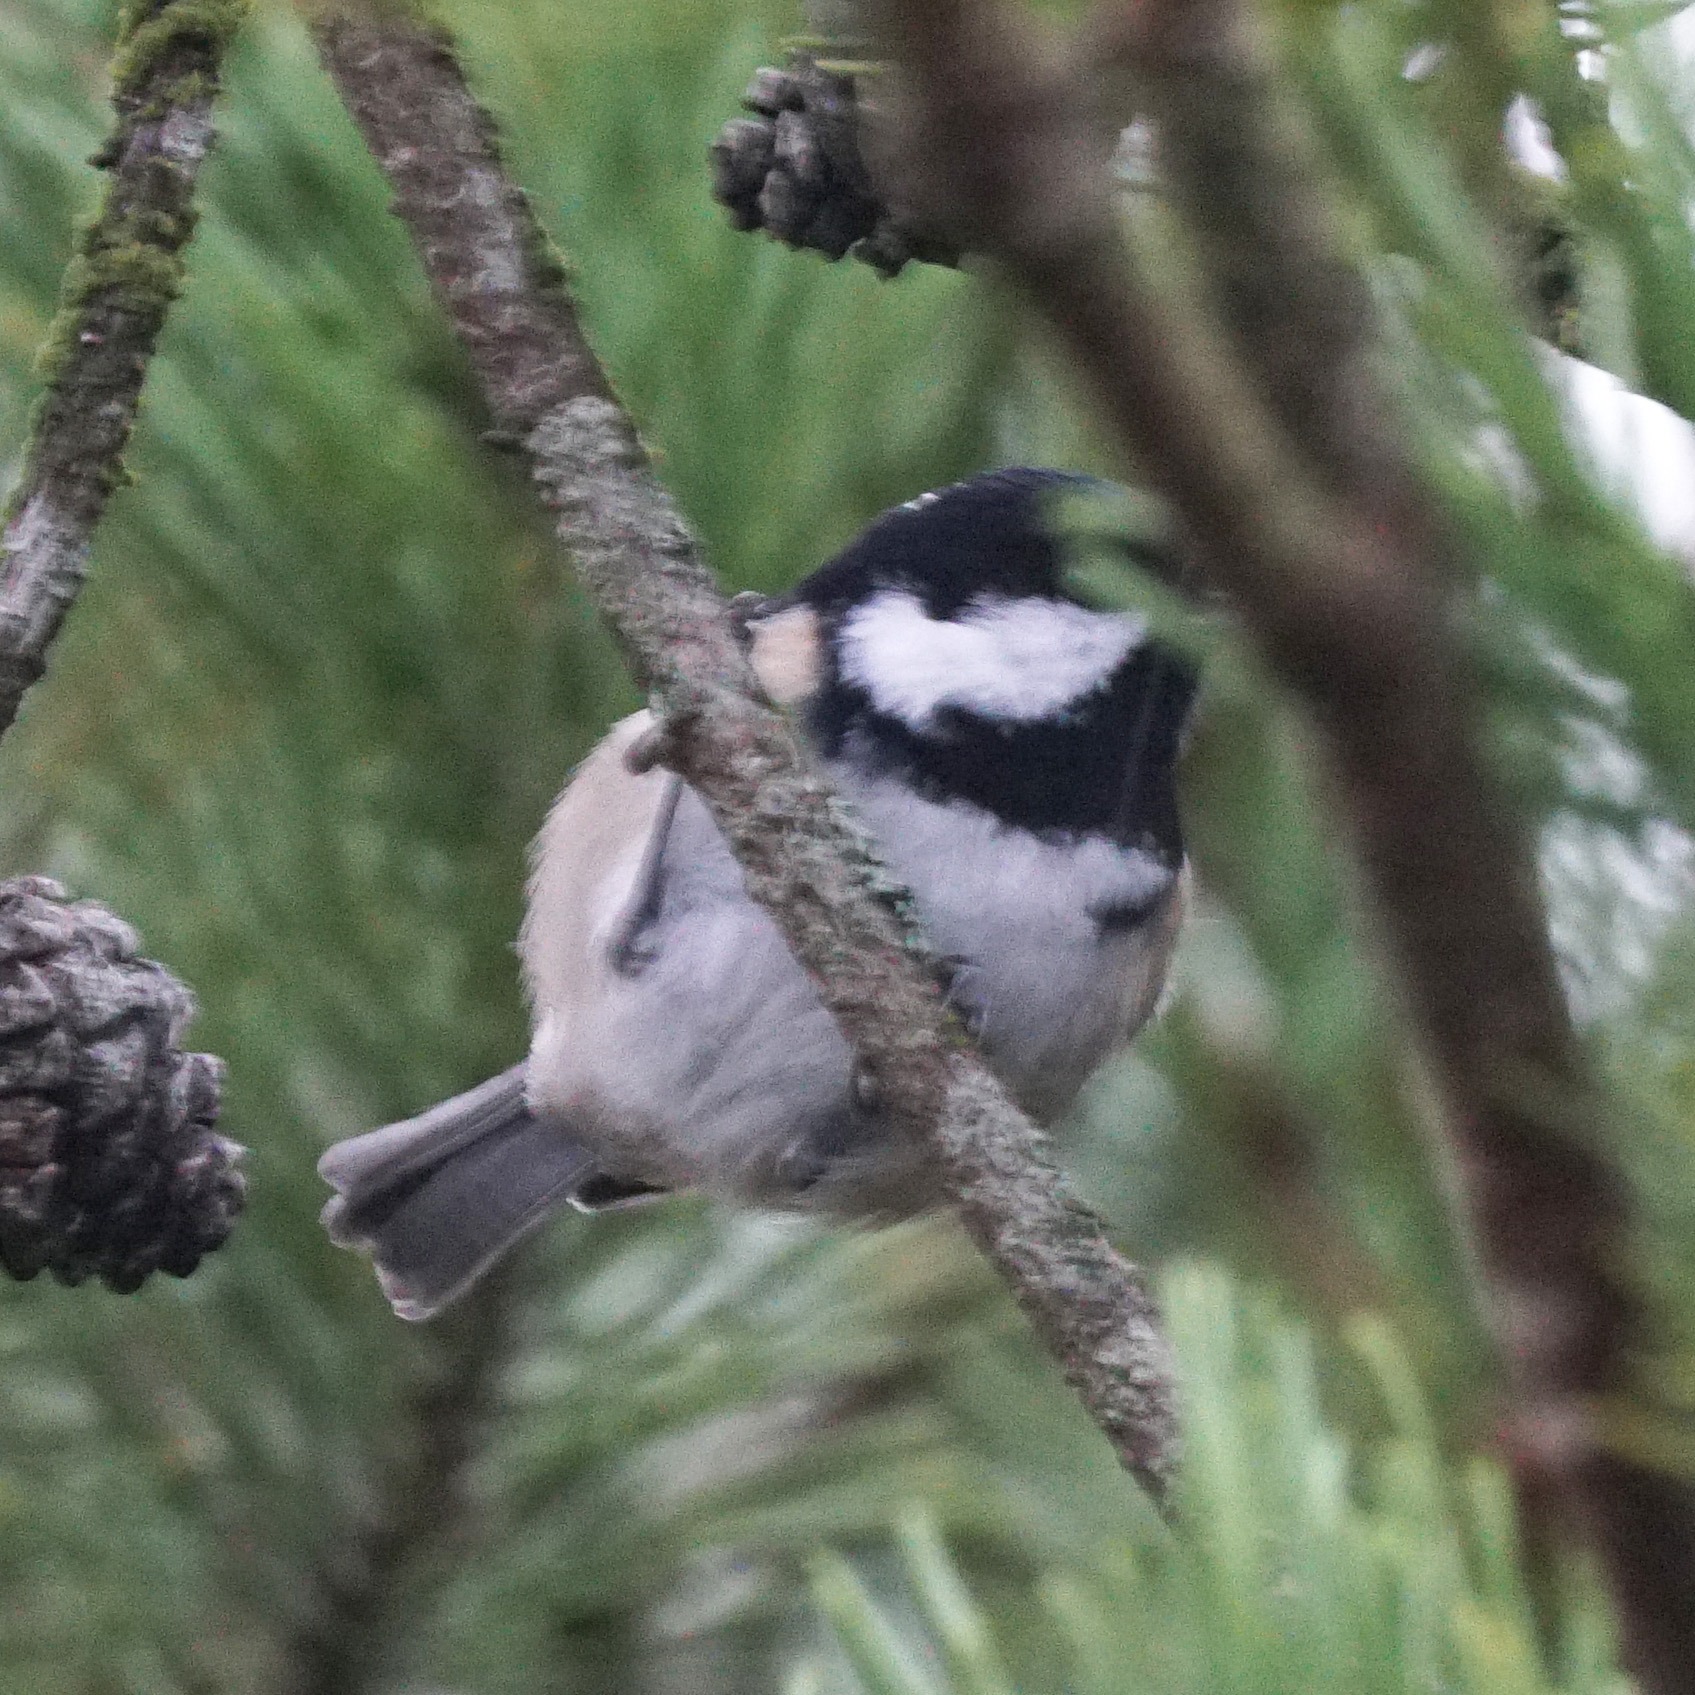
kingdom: Animalia
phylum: Chordata
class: Aves
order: Passeriformes
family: Paridae
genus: Periparus
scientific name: Periparus ater
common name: Sortmejse
